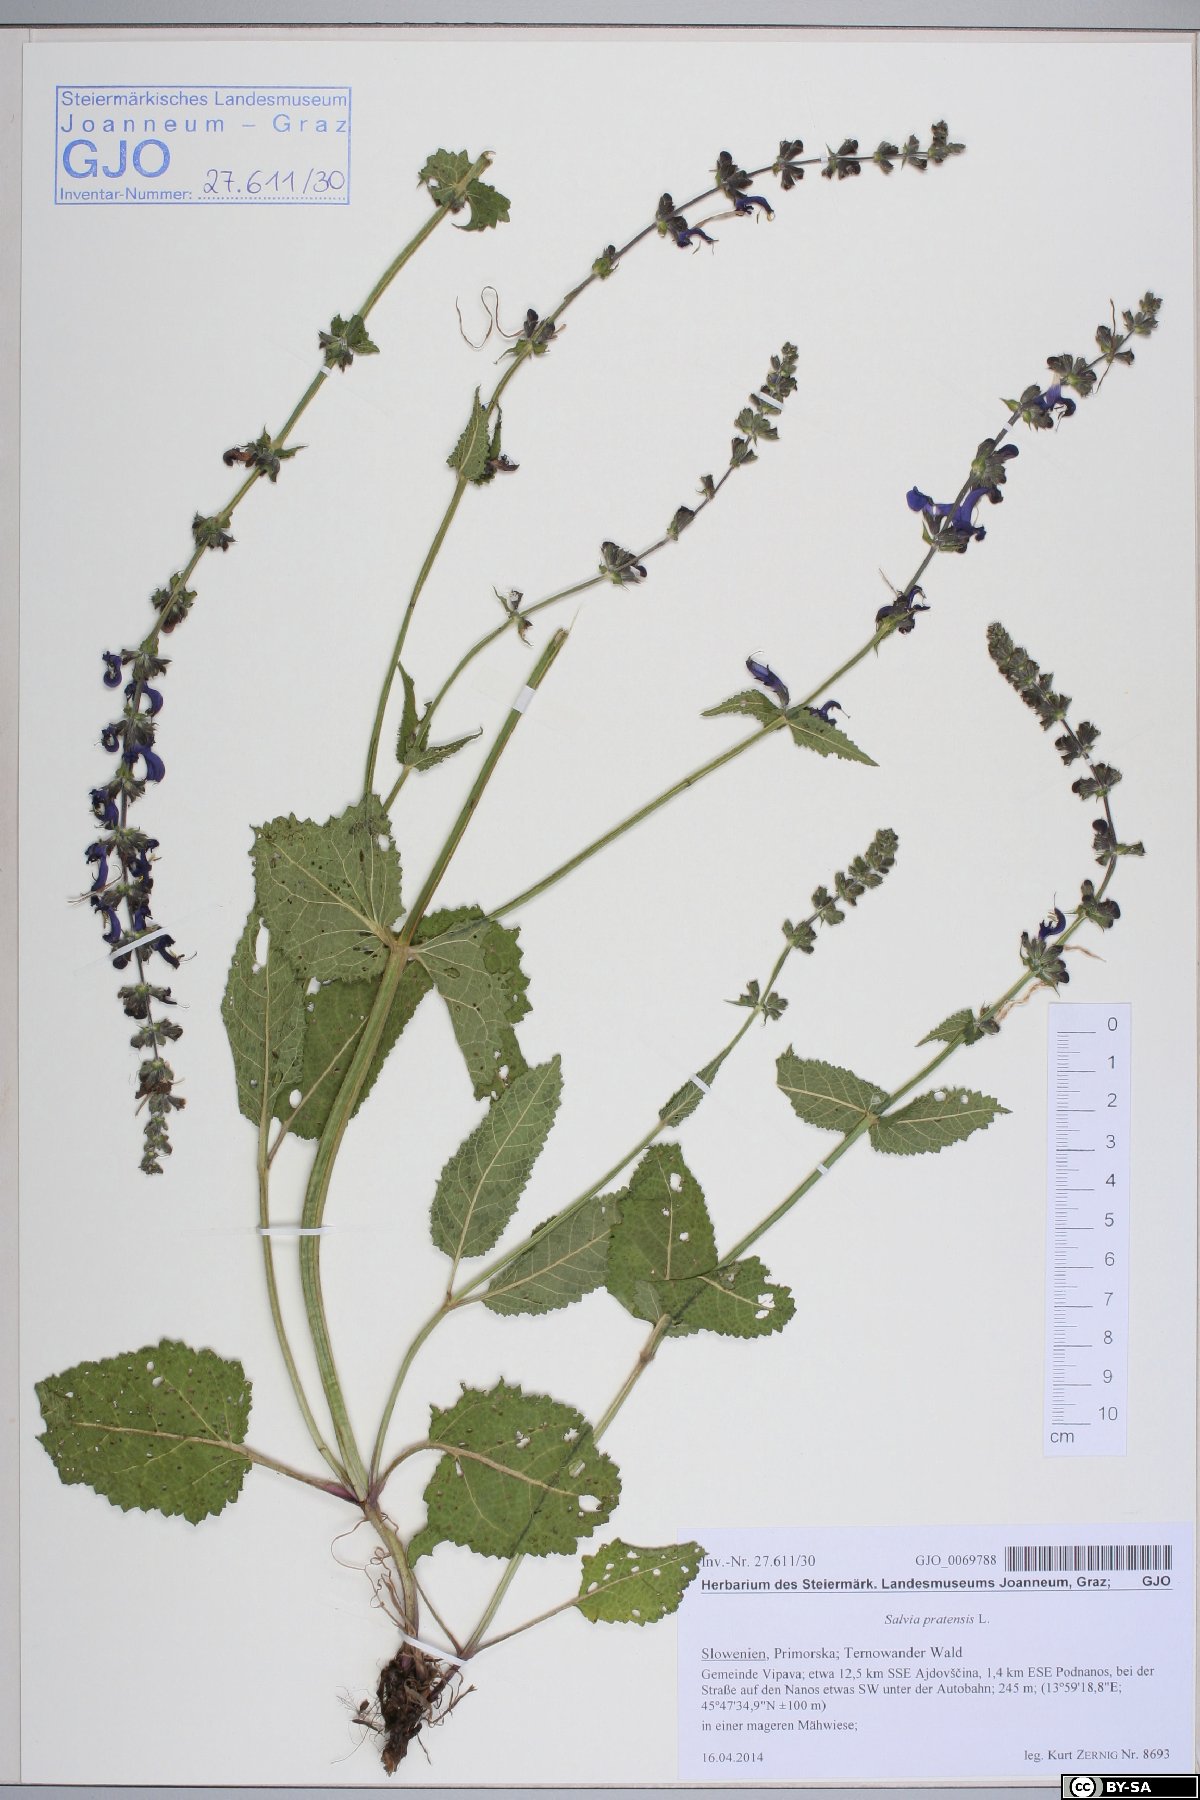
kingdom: Plantae
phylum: Tracheophyta
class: Magnoliopsida
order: Lamiales
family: Lamiaceae
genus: Salvia
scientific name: Salvia pratensis
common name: Meadow sage
